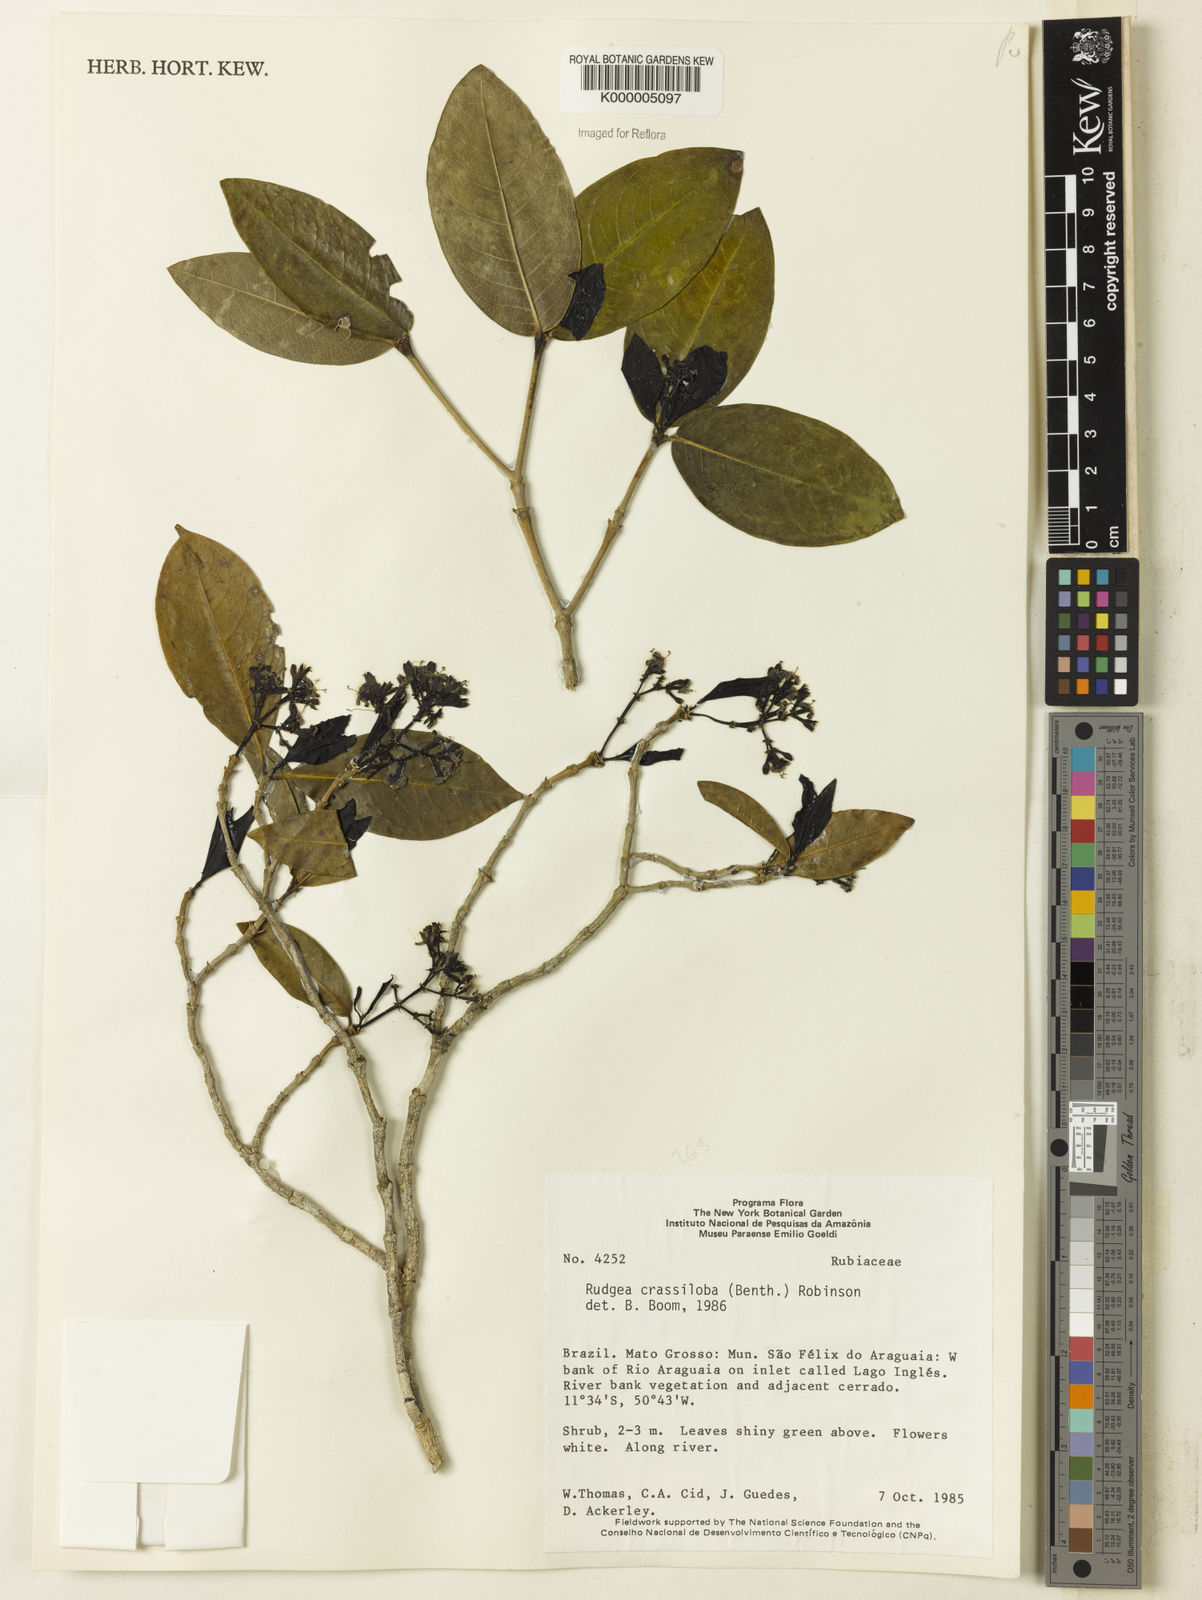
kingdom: Plantae
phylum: Tracheophyta
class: Magnoliopsida
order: Gentianales
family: Rubiaceae
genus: Rudgea
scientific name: Rudgea crassiloba
